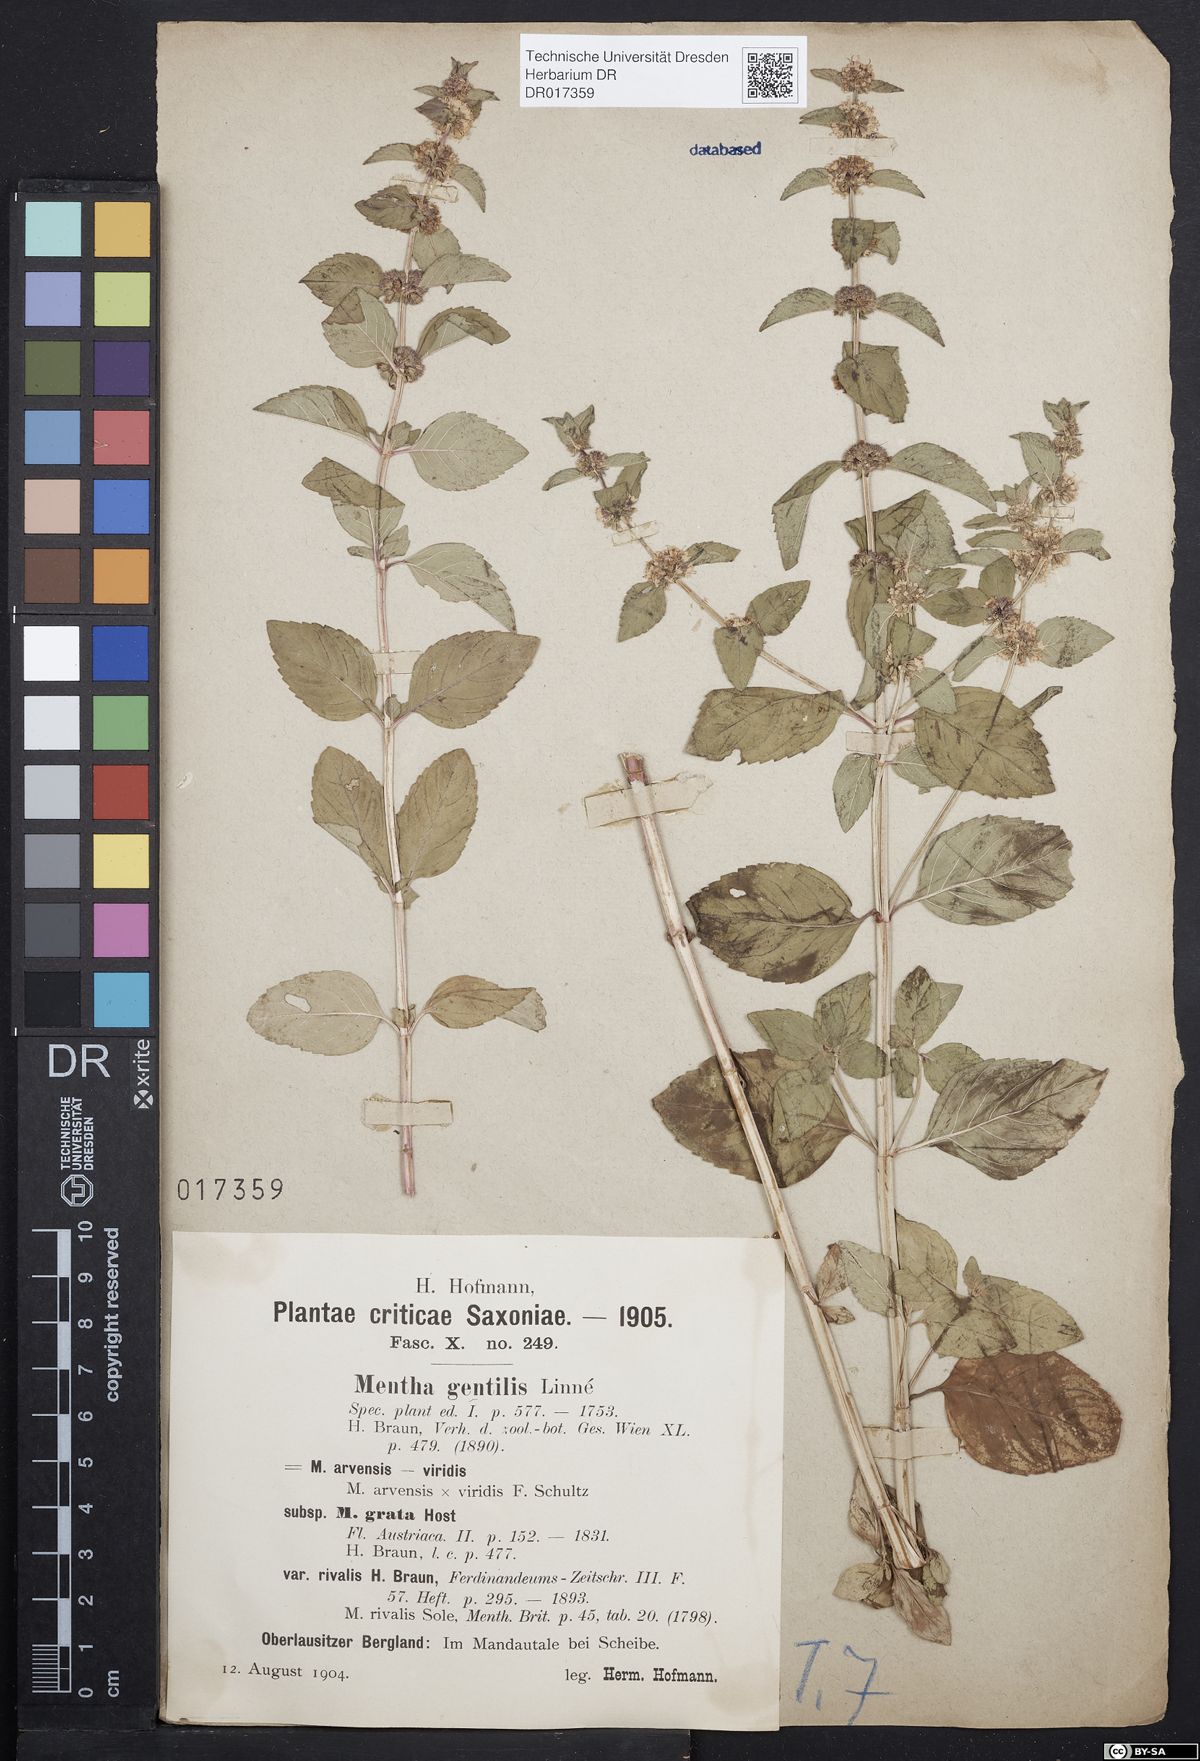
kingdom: Plantae
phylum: Tracheophyta
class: Magnoliopsida
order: Lamiales
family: Lamiaceae
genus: Mentha
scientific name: Mentha gracilis
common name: Bushy mint
